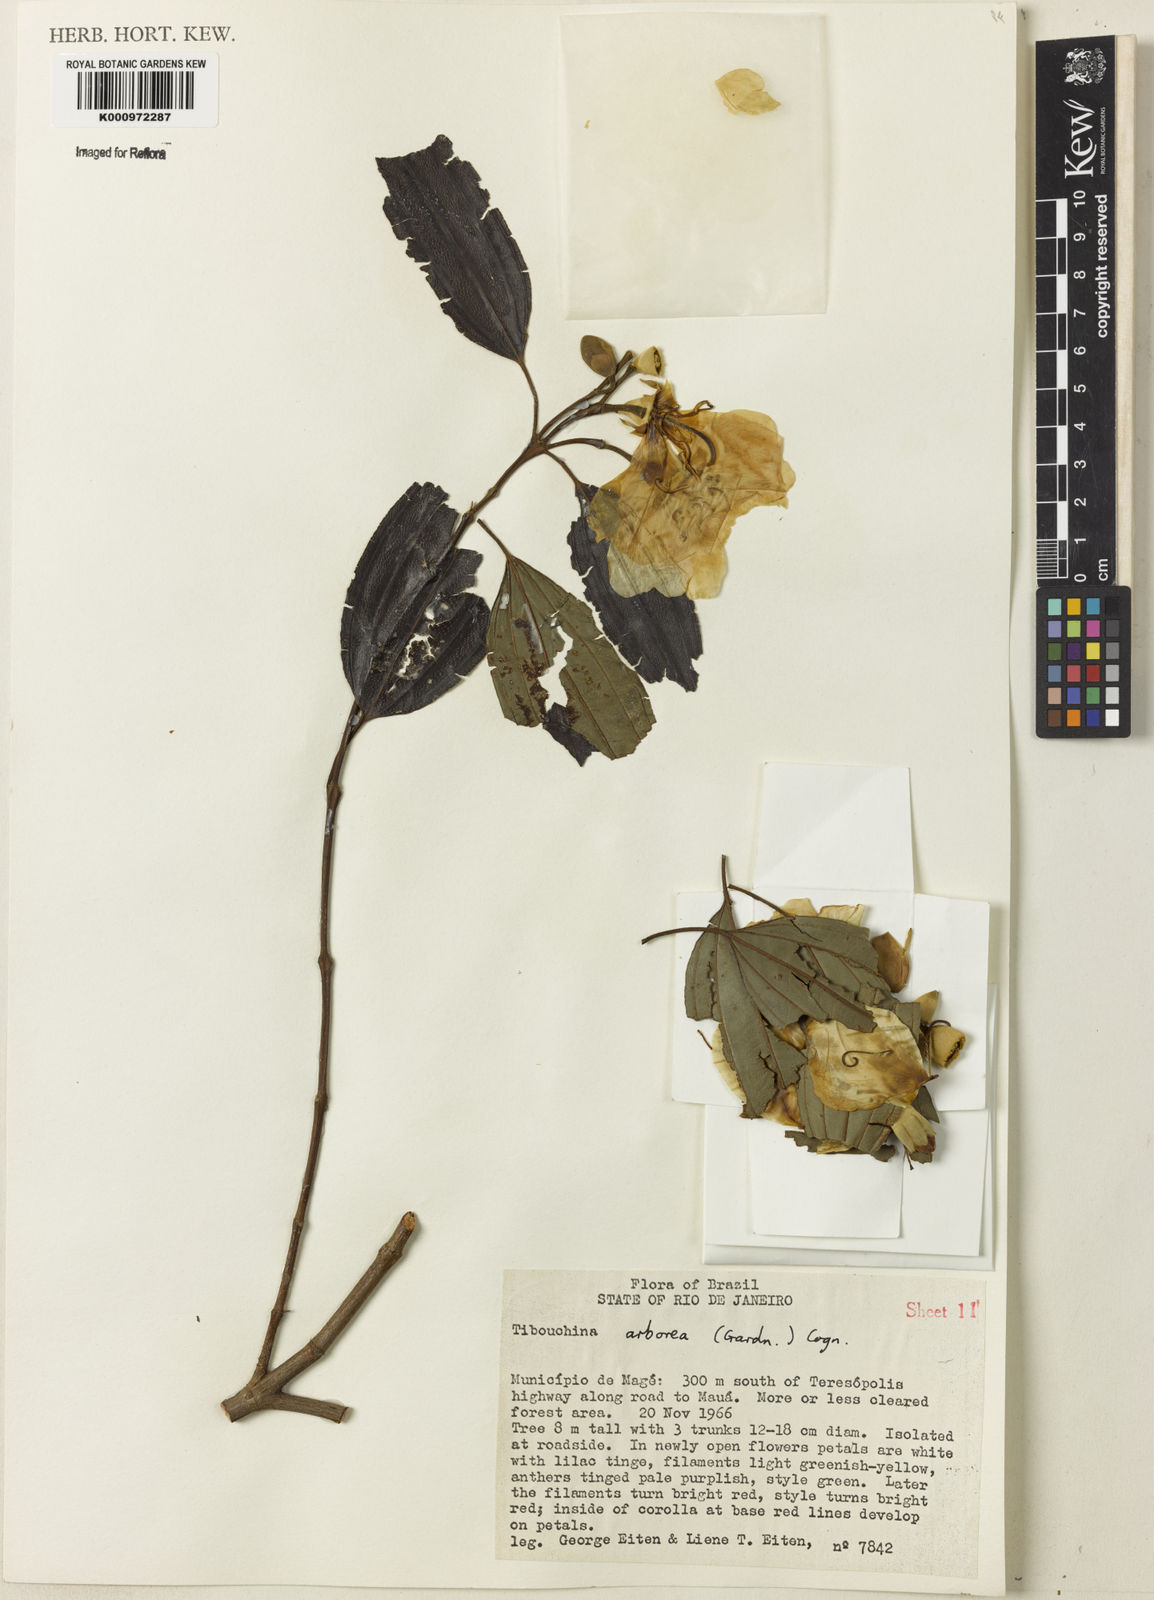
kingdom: Plantae
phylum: Tracheophyta
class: Magnoliopsida
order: Myrtales
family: Melastomataceae
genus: Pleroma
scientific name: Pleroma arboreum
